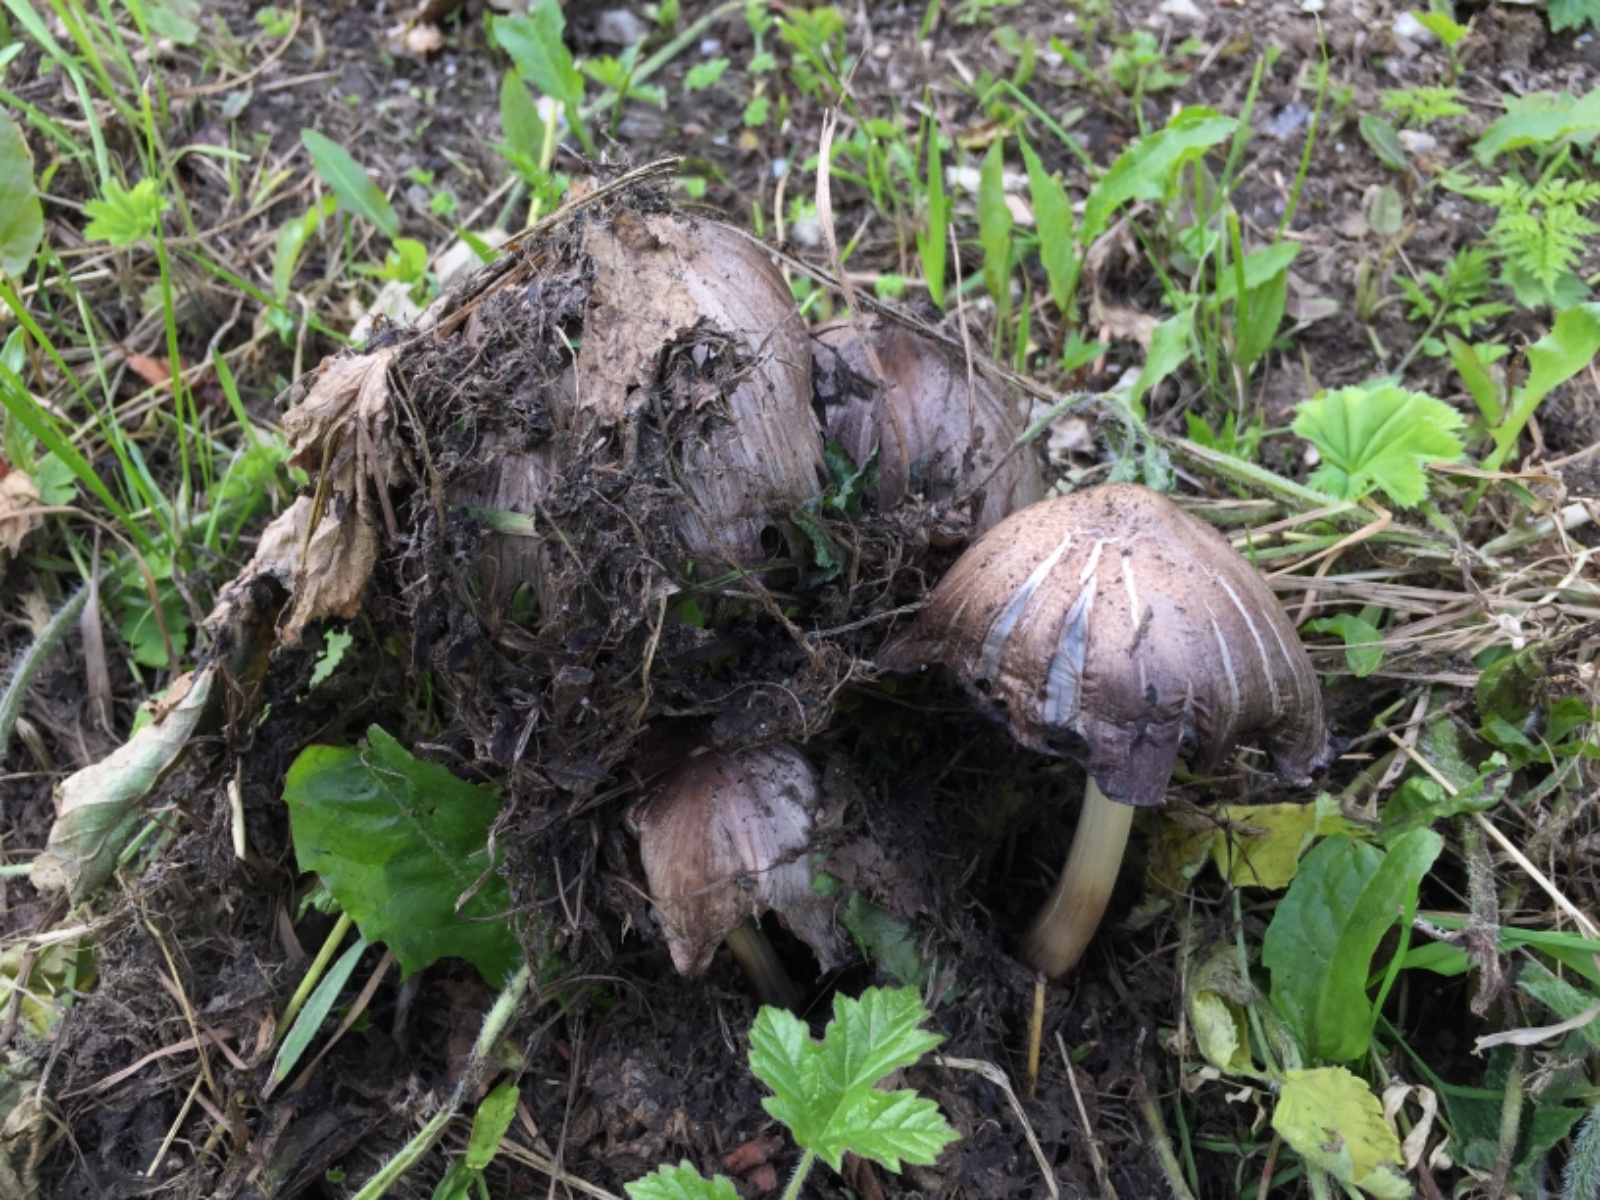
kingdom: Fungi
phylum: Basidiomycota
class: Agaricomycetes
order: Agaricales
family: Psathyrellaceae
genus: Coprinopsis
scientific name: Coprinopsis atramentaria
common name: almindelig blækhat
